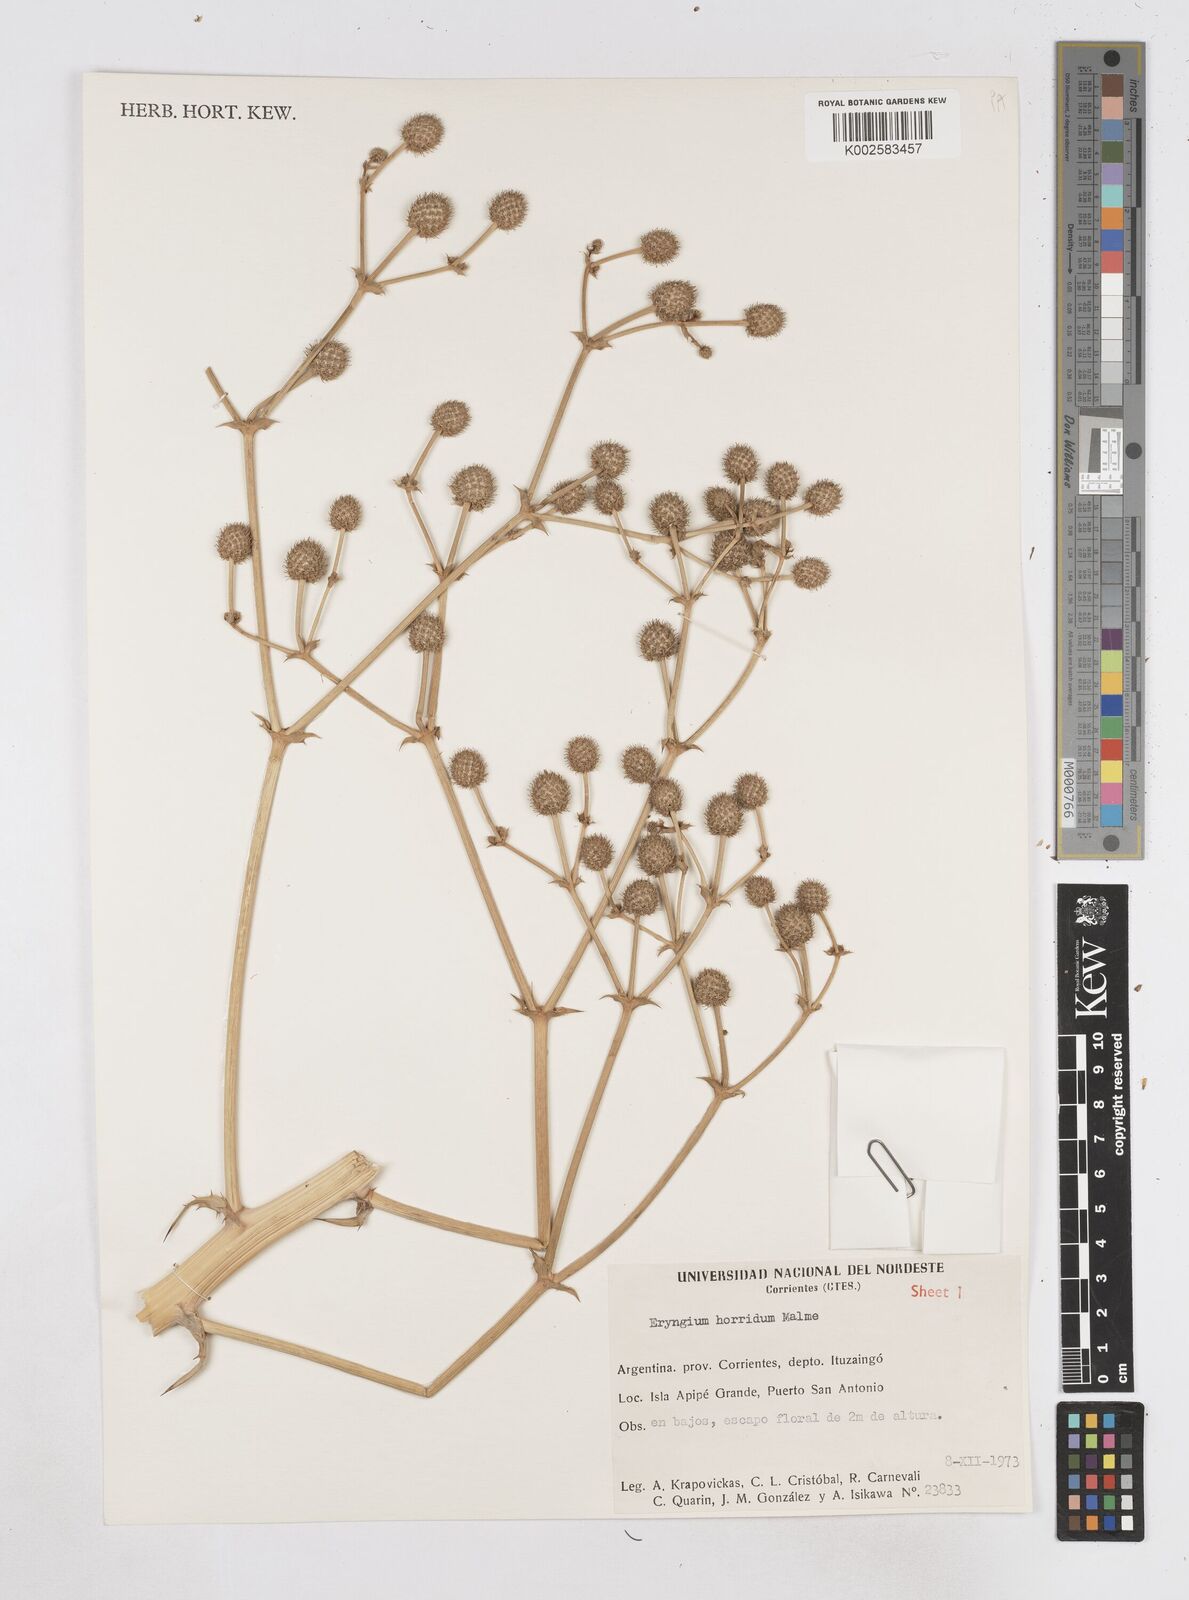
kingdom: Plantae
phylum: Tracheophyta
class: Magnoliopsida
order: Apiales
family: Apiaceae
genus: Eryngium
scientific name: Eryngium horridum
